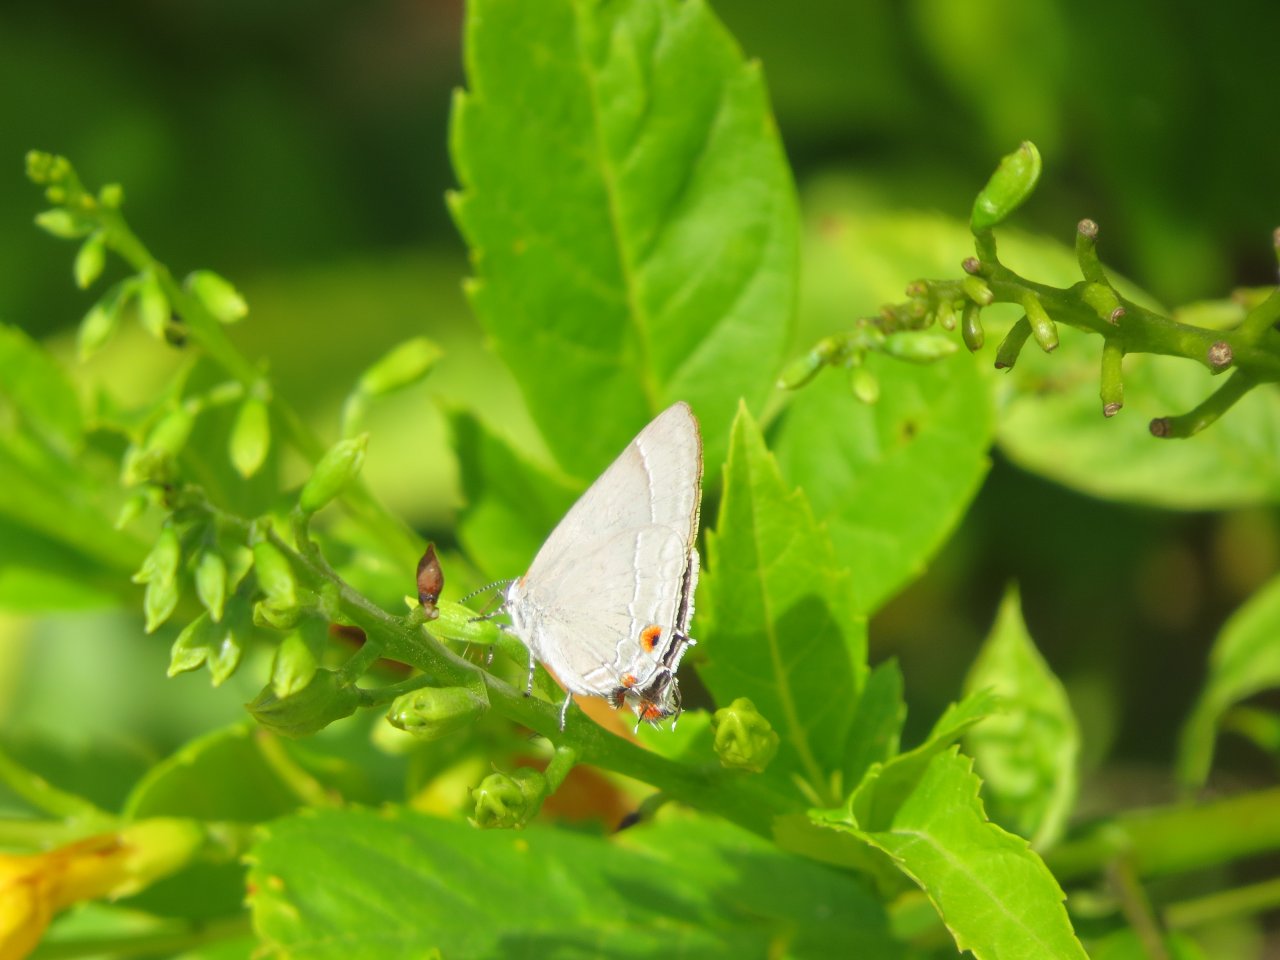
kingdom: Animalia
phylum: Arthropoda
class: Insecta
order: Lepidoptera
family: Lycaenidae
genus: Strymon
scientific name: Strymon melinus
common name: Gray Hairstreak
